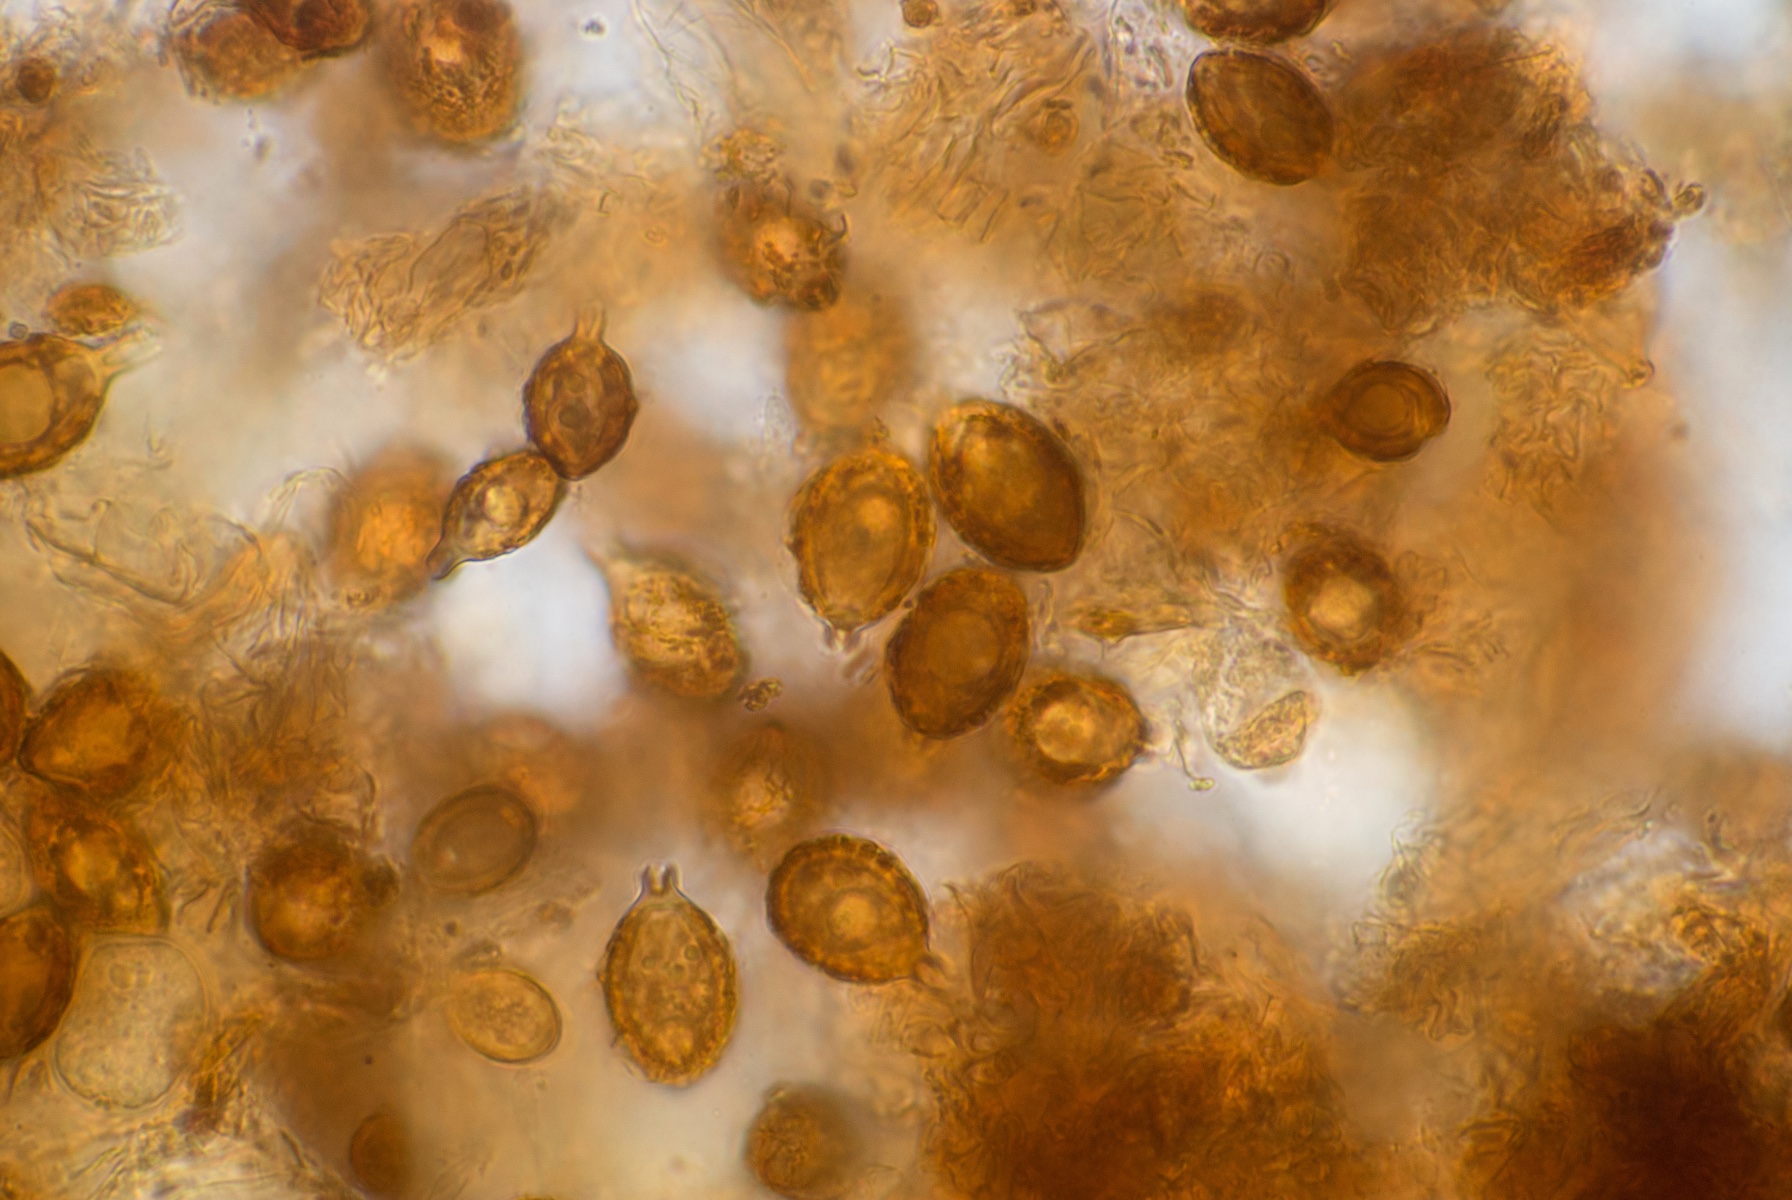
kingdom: Fungi
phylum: Basidiomycota
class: Agaricomycetes
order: Agaricales
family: Hymenogastraceae
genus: Hymenogaster
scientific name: Hymenogaster
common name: knoldtrøffel
